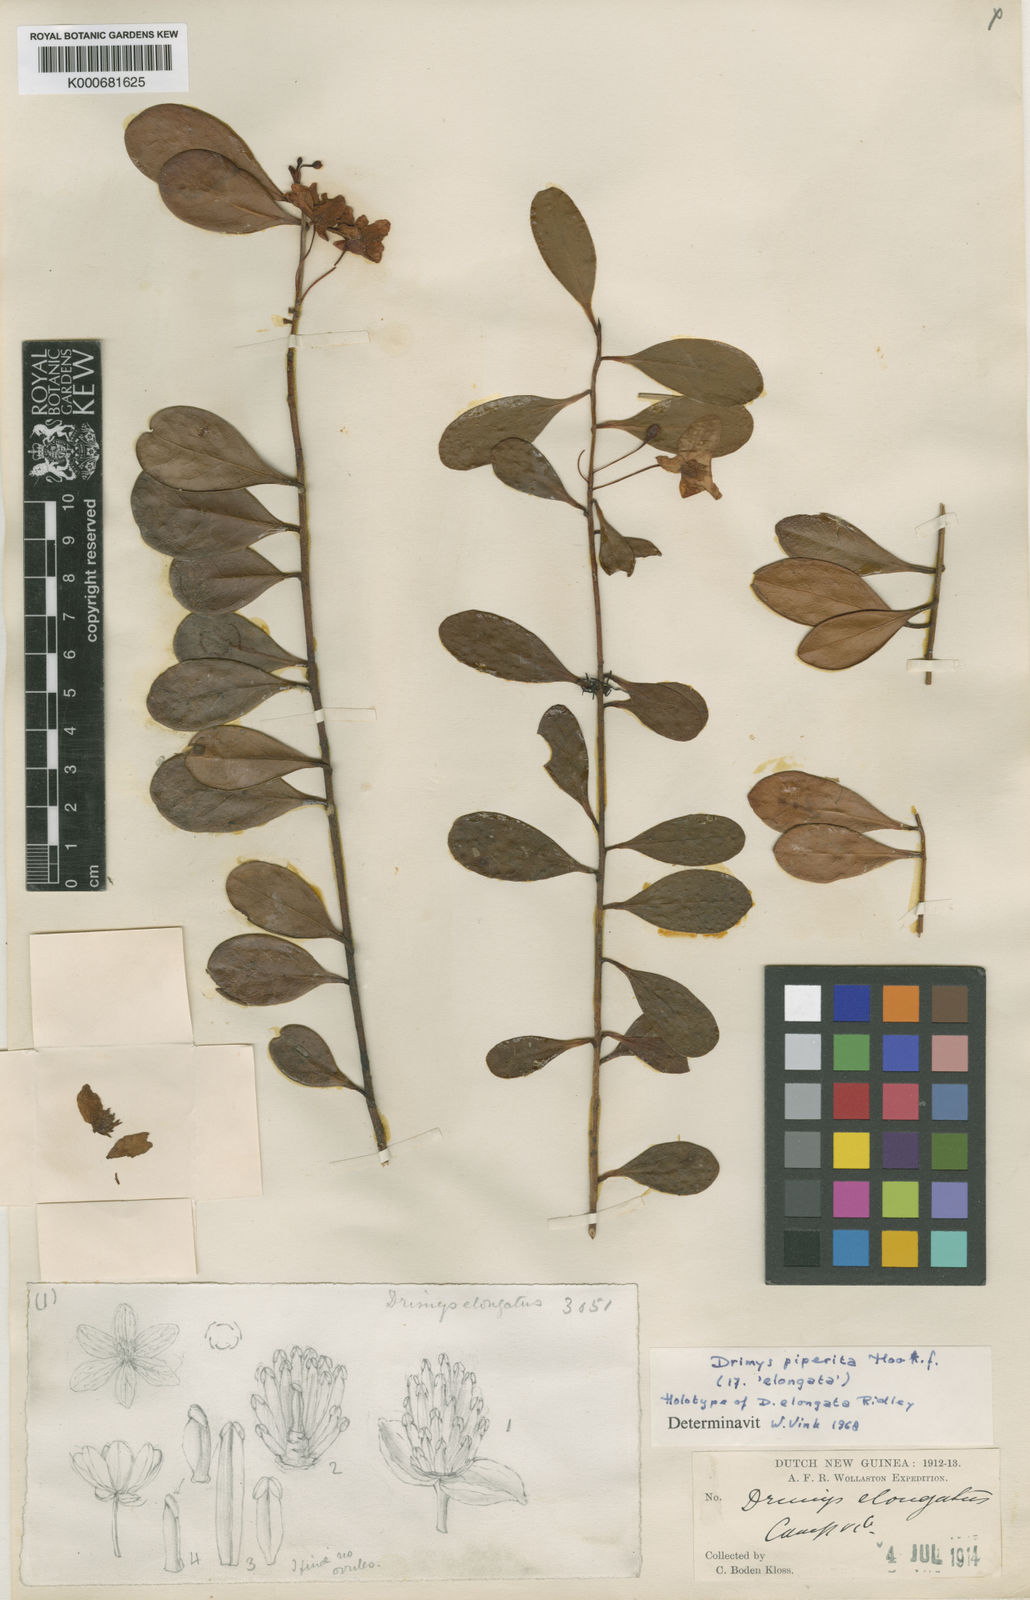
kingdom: Plantae
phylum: Tracheophyta
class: Magnoliopsida
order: Canellales
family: Winteraceae
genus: Drimys
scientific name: Drimys piperita
